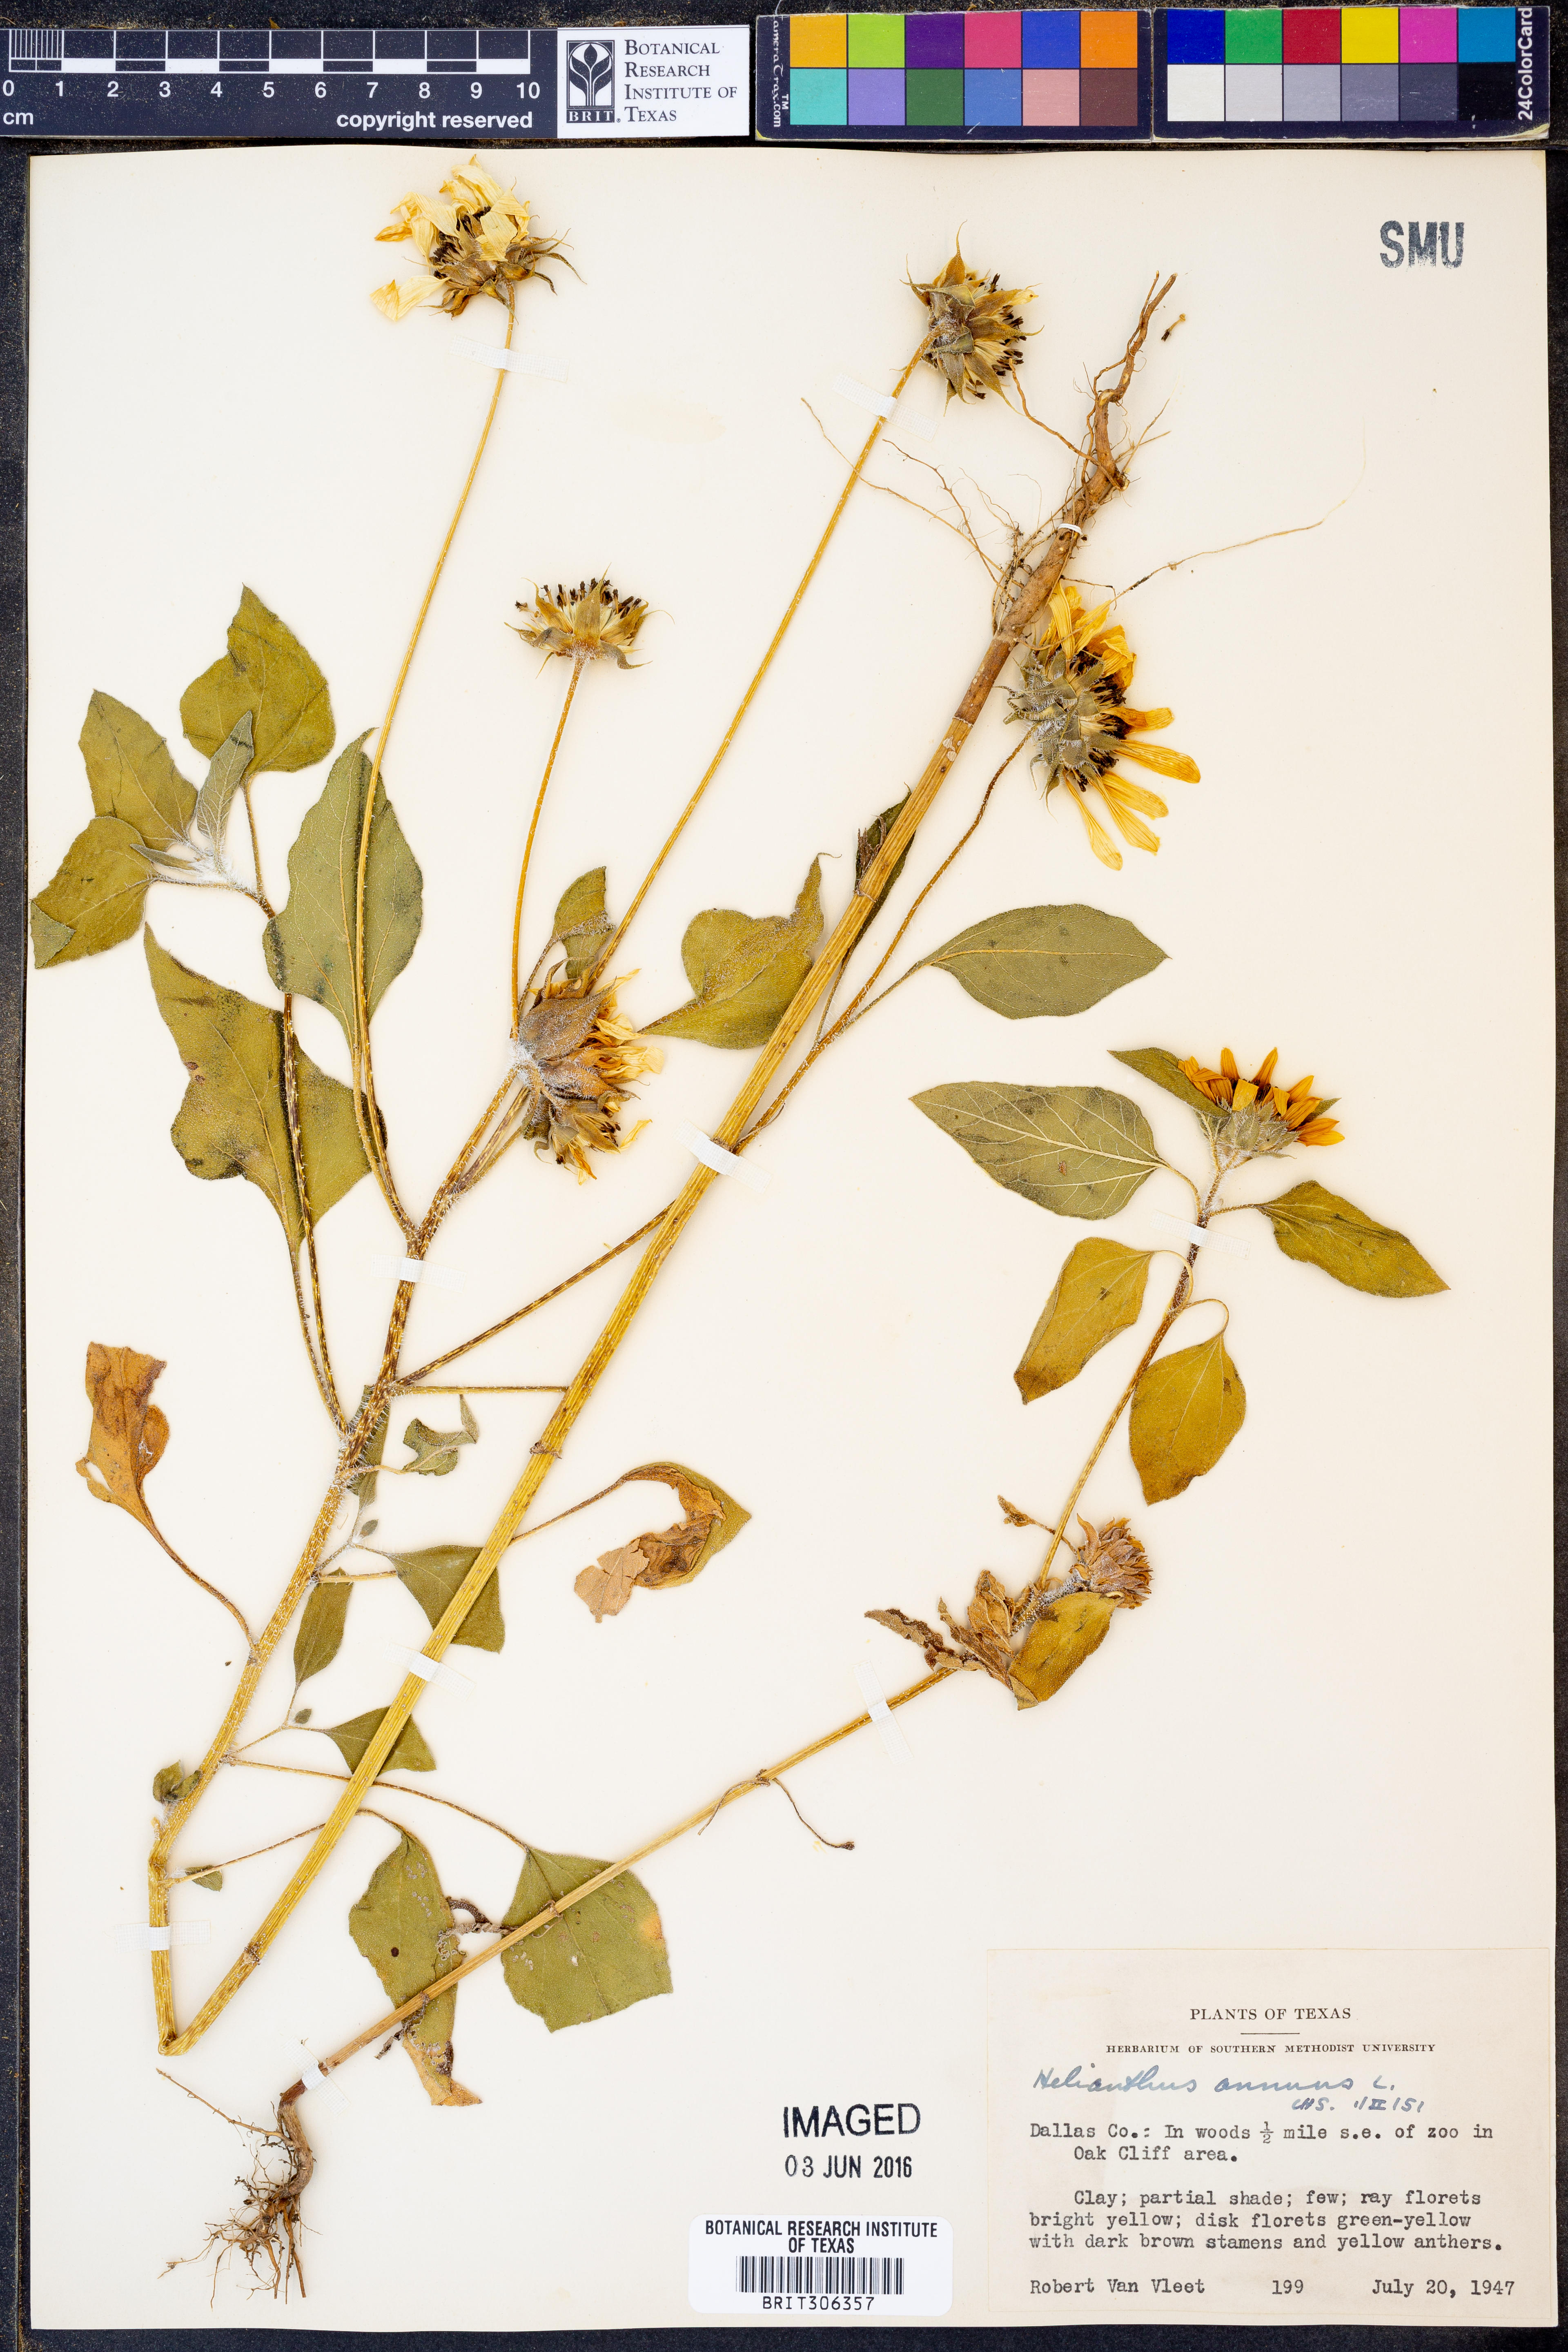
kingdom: Plantae
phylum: Tracheophyta
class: Magnoliopsida
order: Asterales
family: Asteraceae
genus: Helianthus
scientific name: Helianthus annuus
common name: Sunflower
